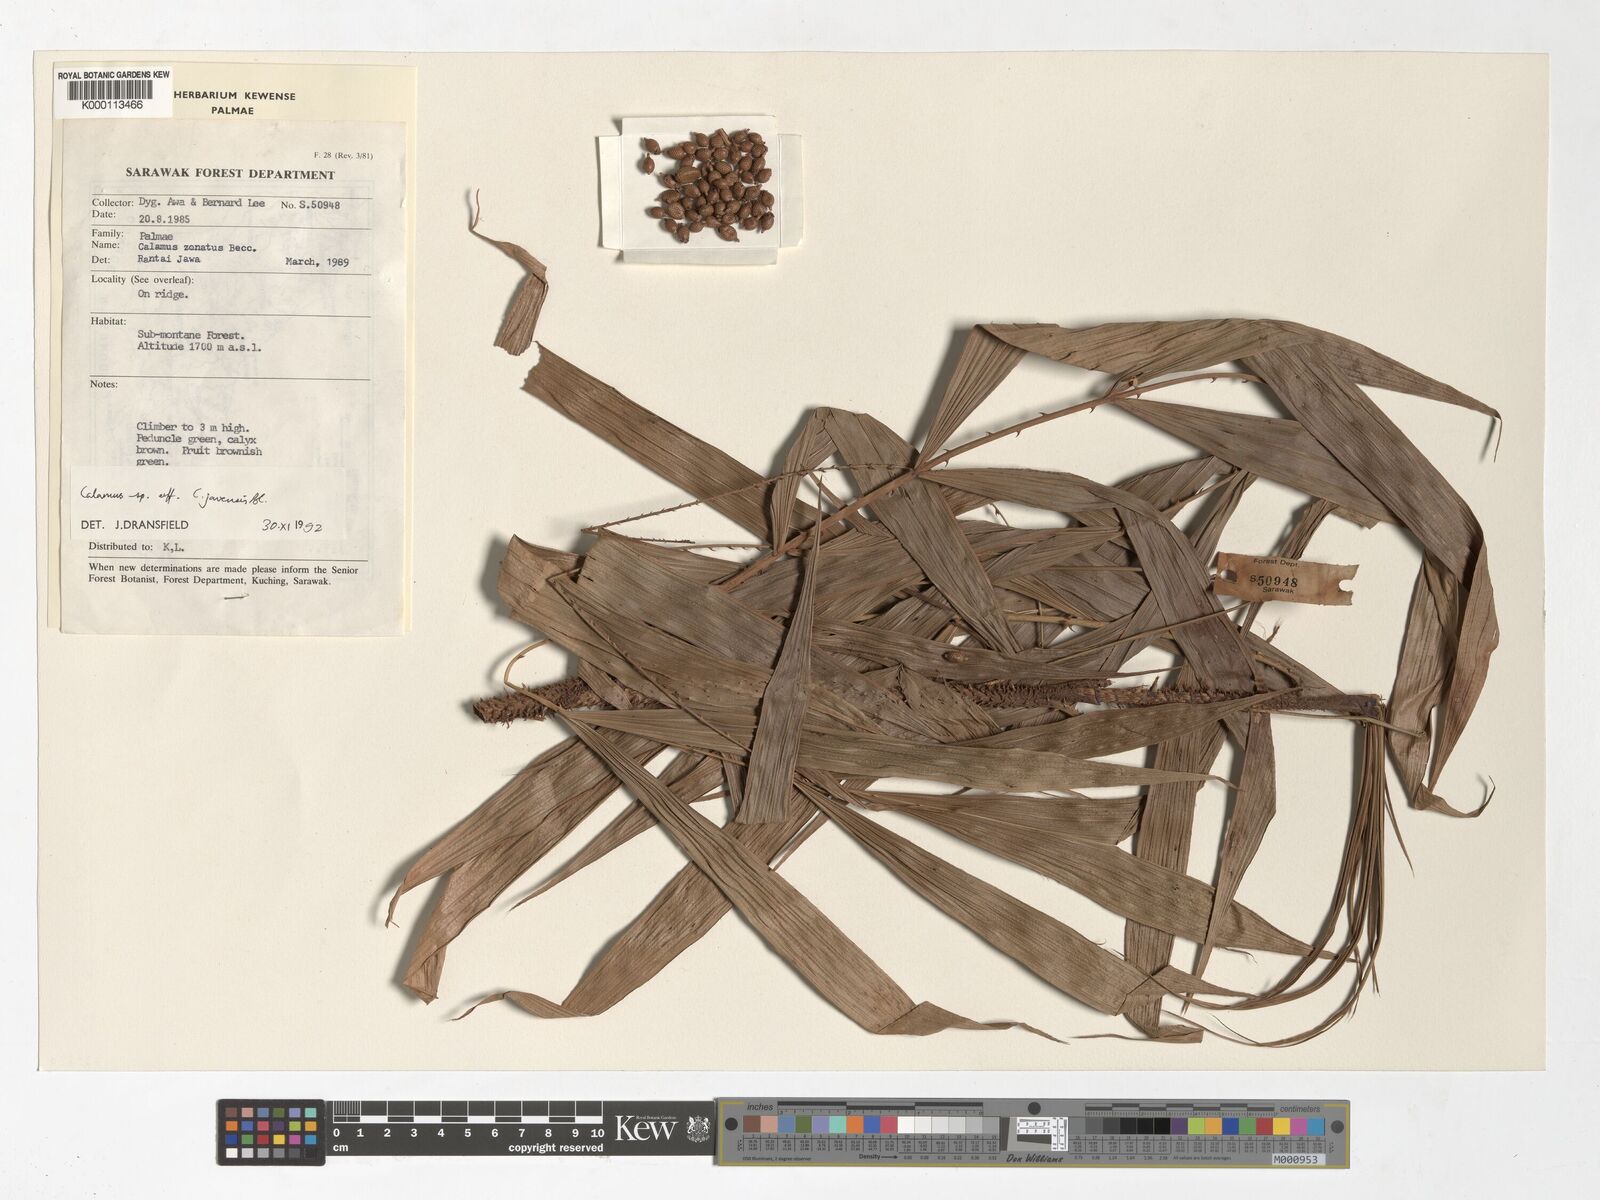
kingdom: Plantae
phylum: Tracheophyta
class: Liliopsida
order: Arecales
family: Arecaceae
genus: Calamus
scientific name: Calamus javensis
